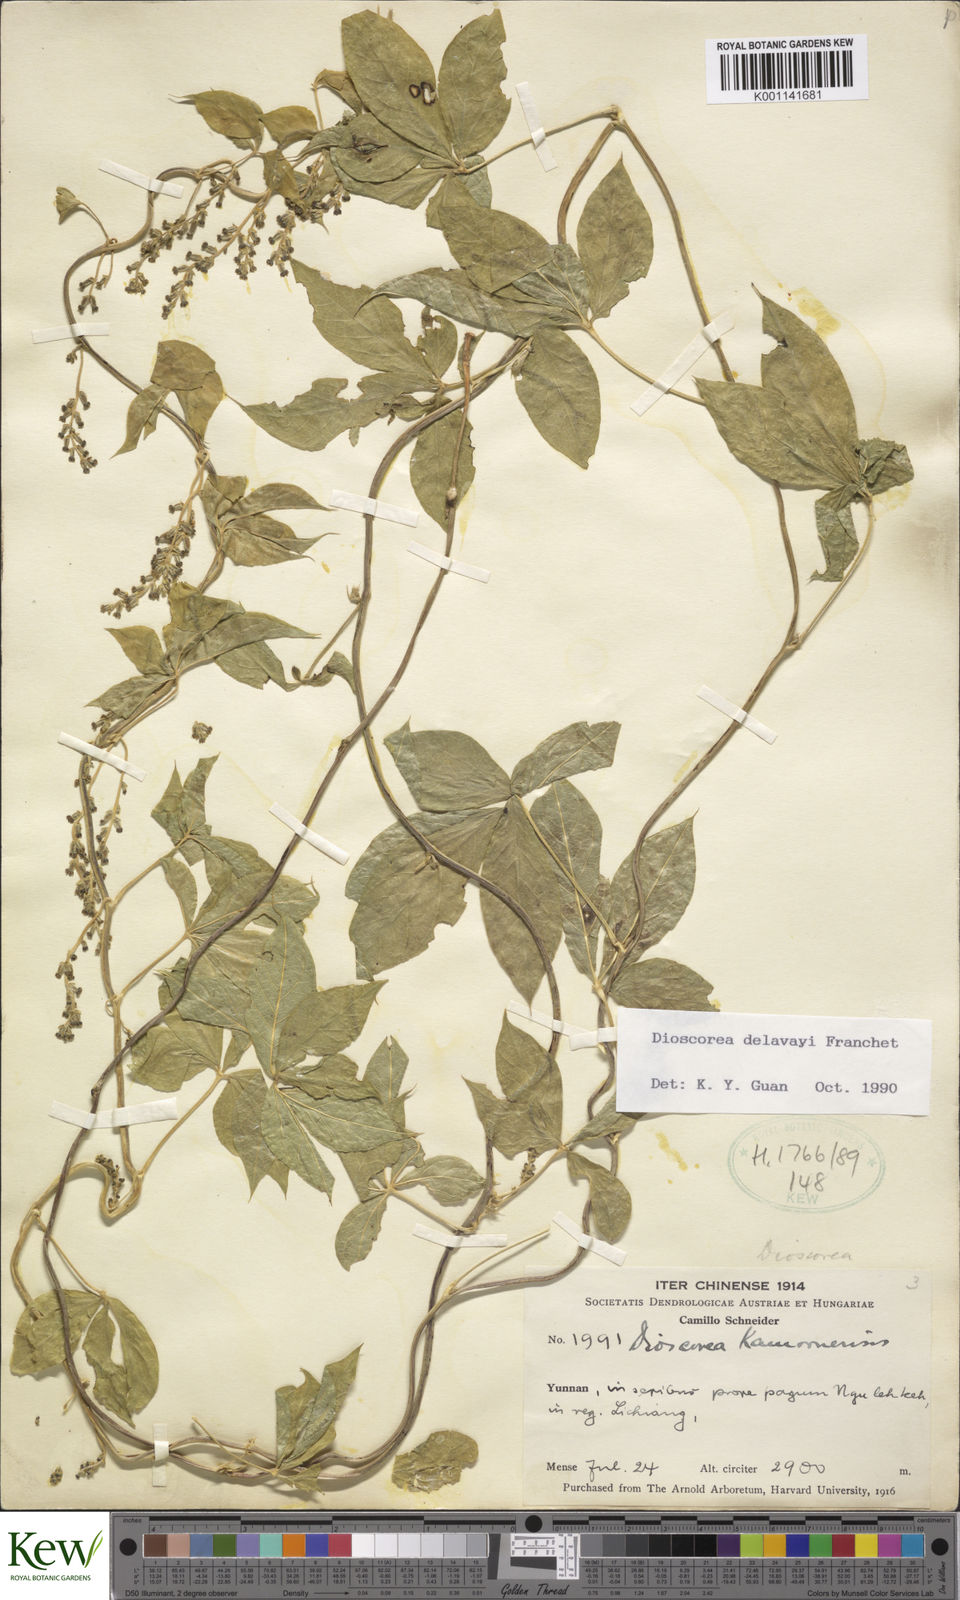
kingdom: Plantae
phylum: Tracheophyta
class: Liliopsida
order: Dioscoreales
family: Dioscoreaceae
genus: Dioscorea
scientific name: Dioscorea kamoonensis
